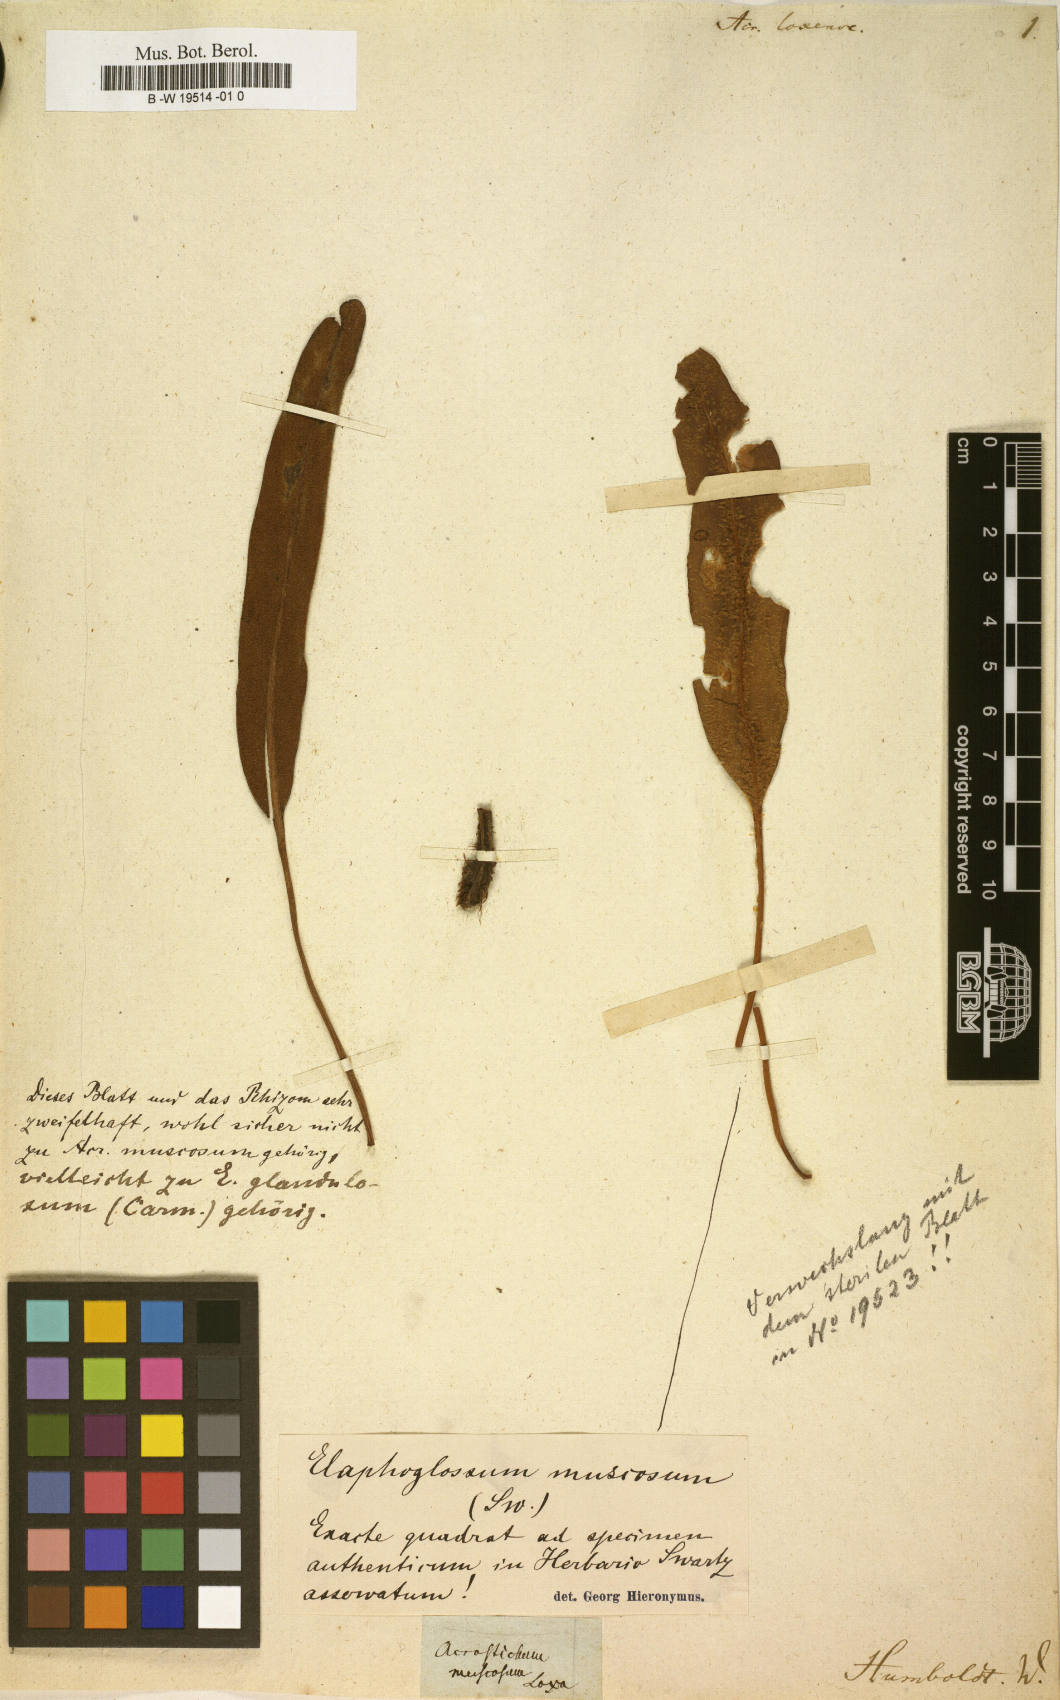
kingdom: Plantae
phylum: Tracheophyta
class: Polypodiopsida
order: Polypodiales
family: Pteridaceae
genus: Acrostichum
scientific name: Acrostichum
